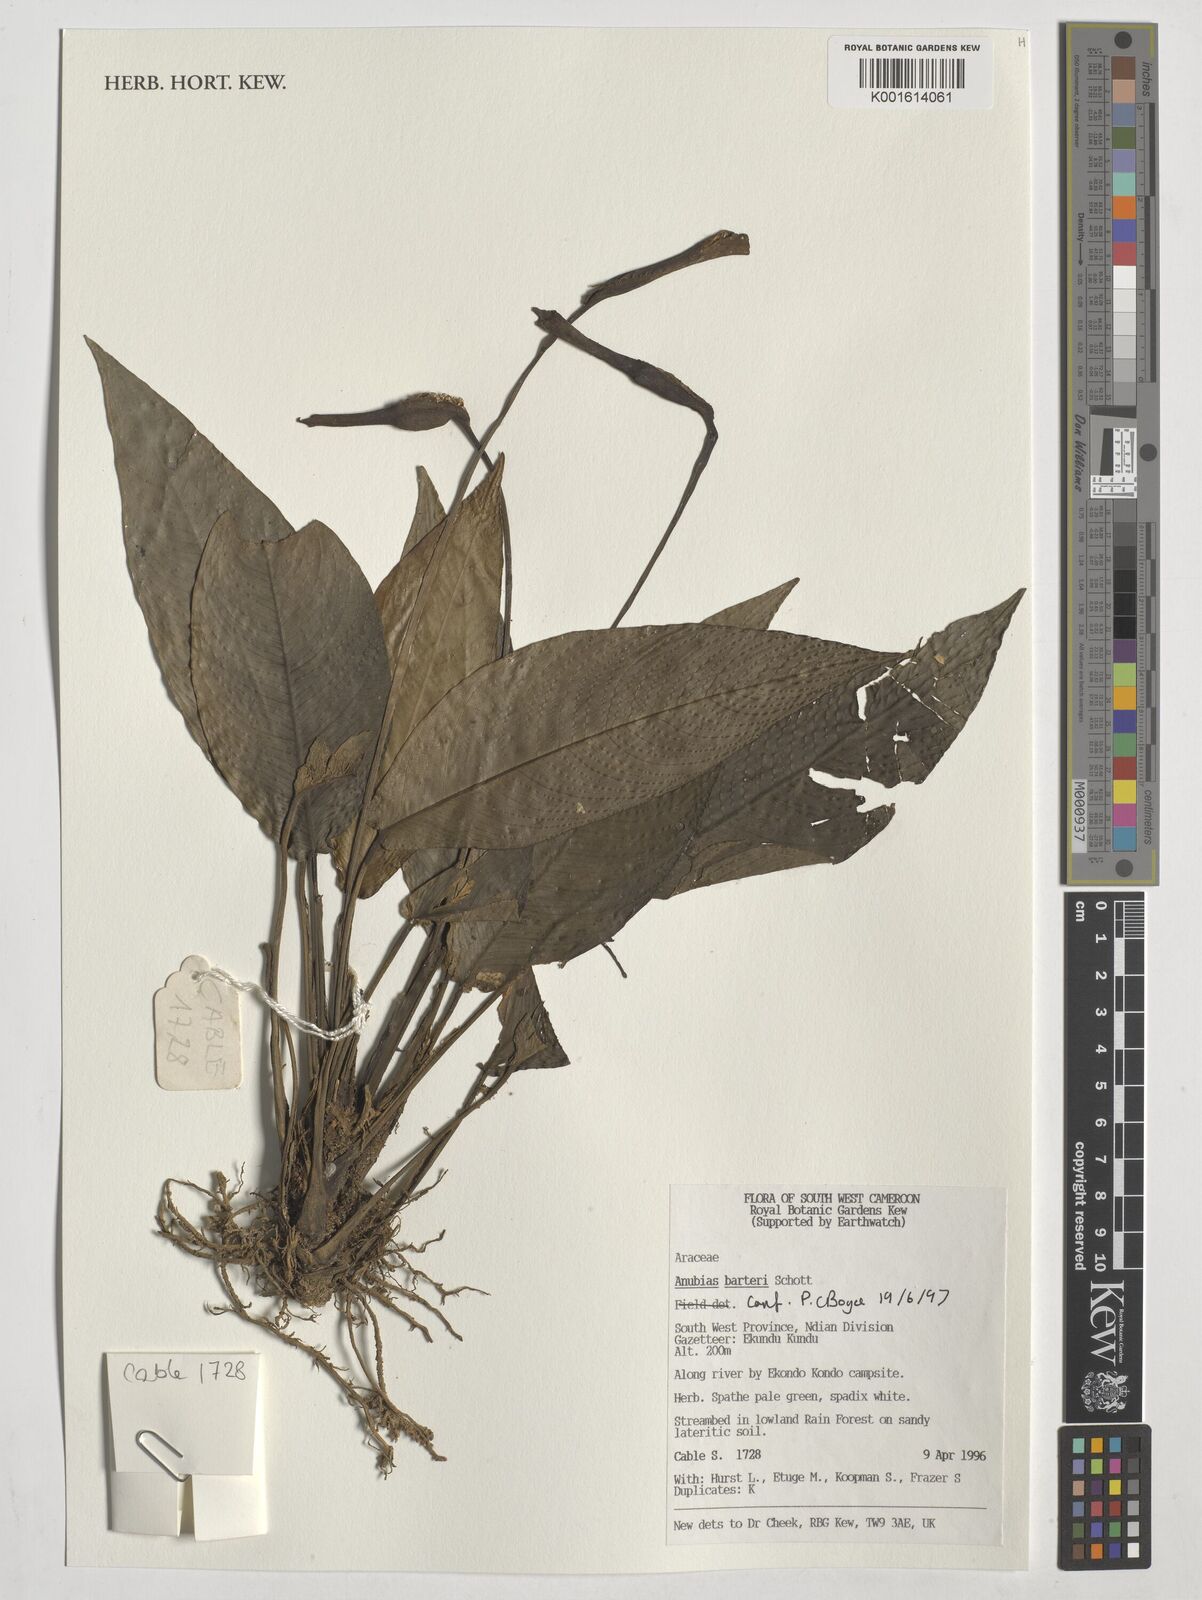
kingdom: Plantae
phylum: Tracheophyta
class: Liliopsida
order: Alismatales
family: Araceae
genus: Anubias
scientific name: Anubias barteri
